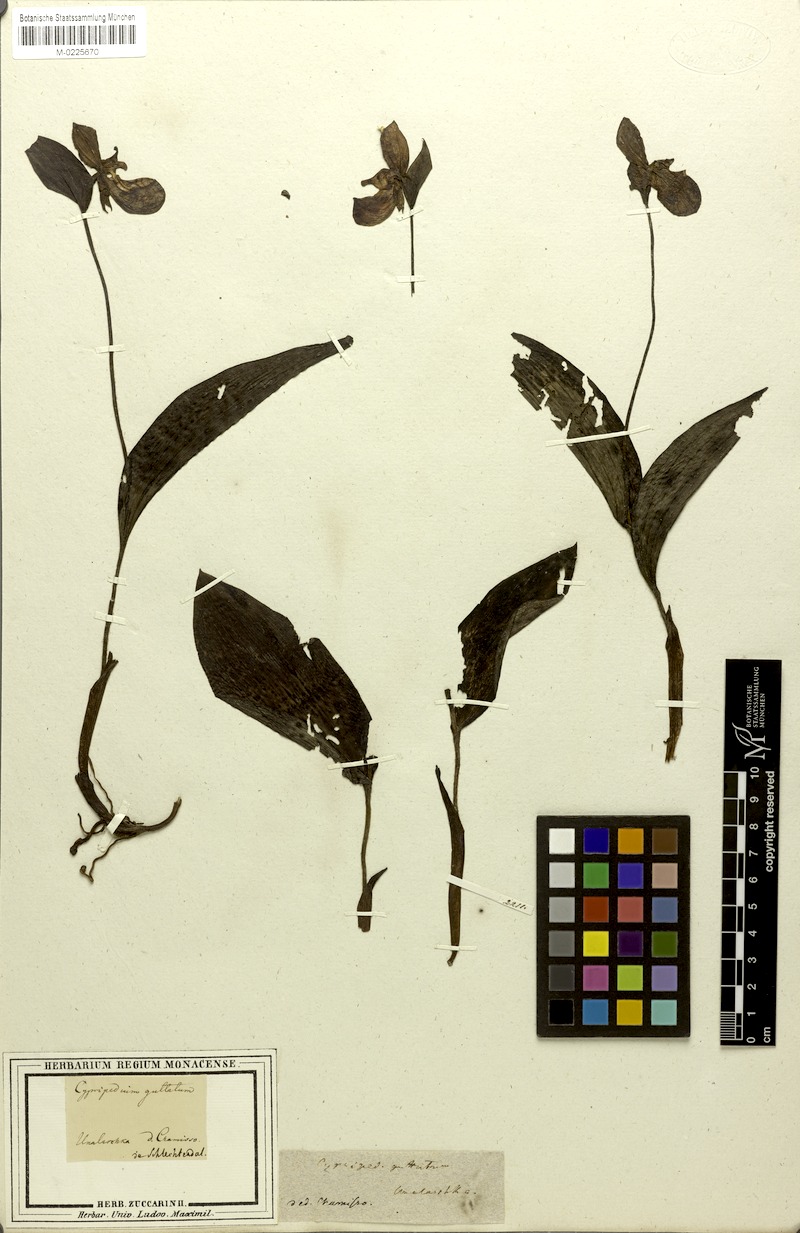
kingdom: Plantae
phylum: Tracheophyta
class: Liliopsida
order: Asparagales
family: Orchidaceae
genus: Cypripedium
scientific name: Cypripedium guttatum
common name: Pink lady slipper
